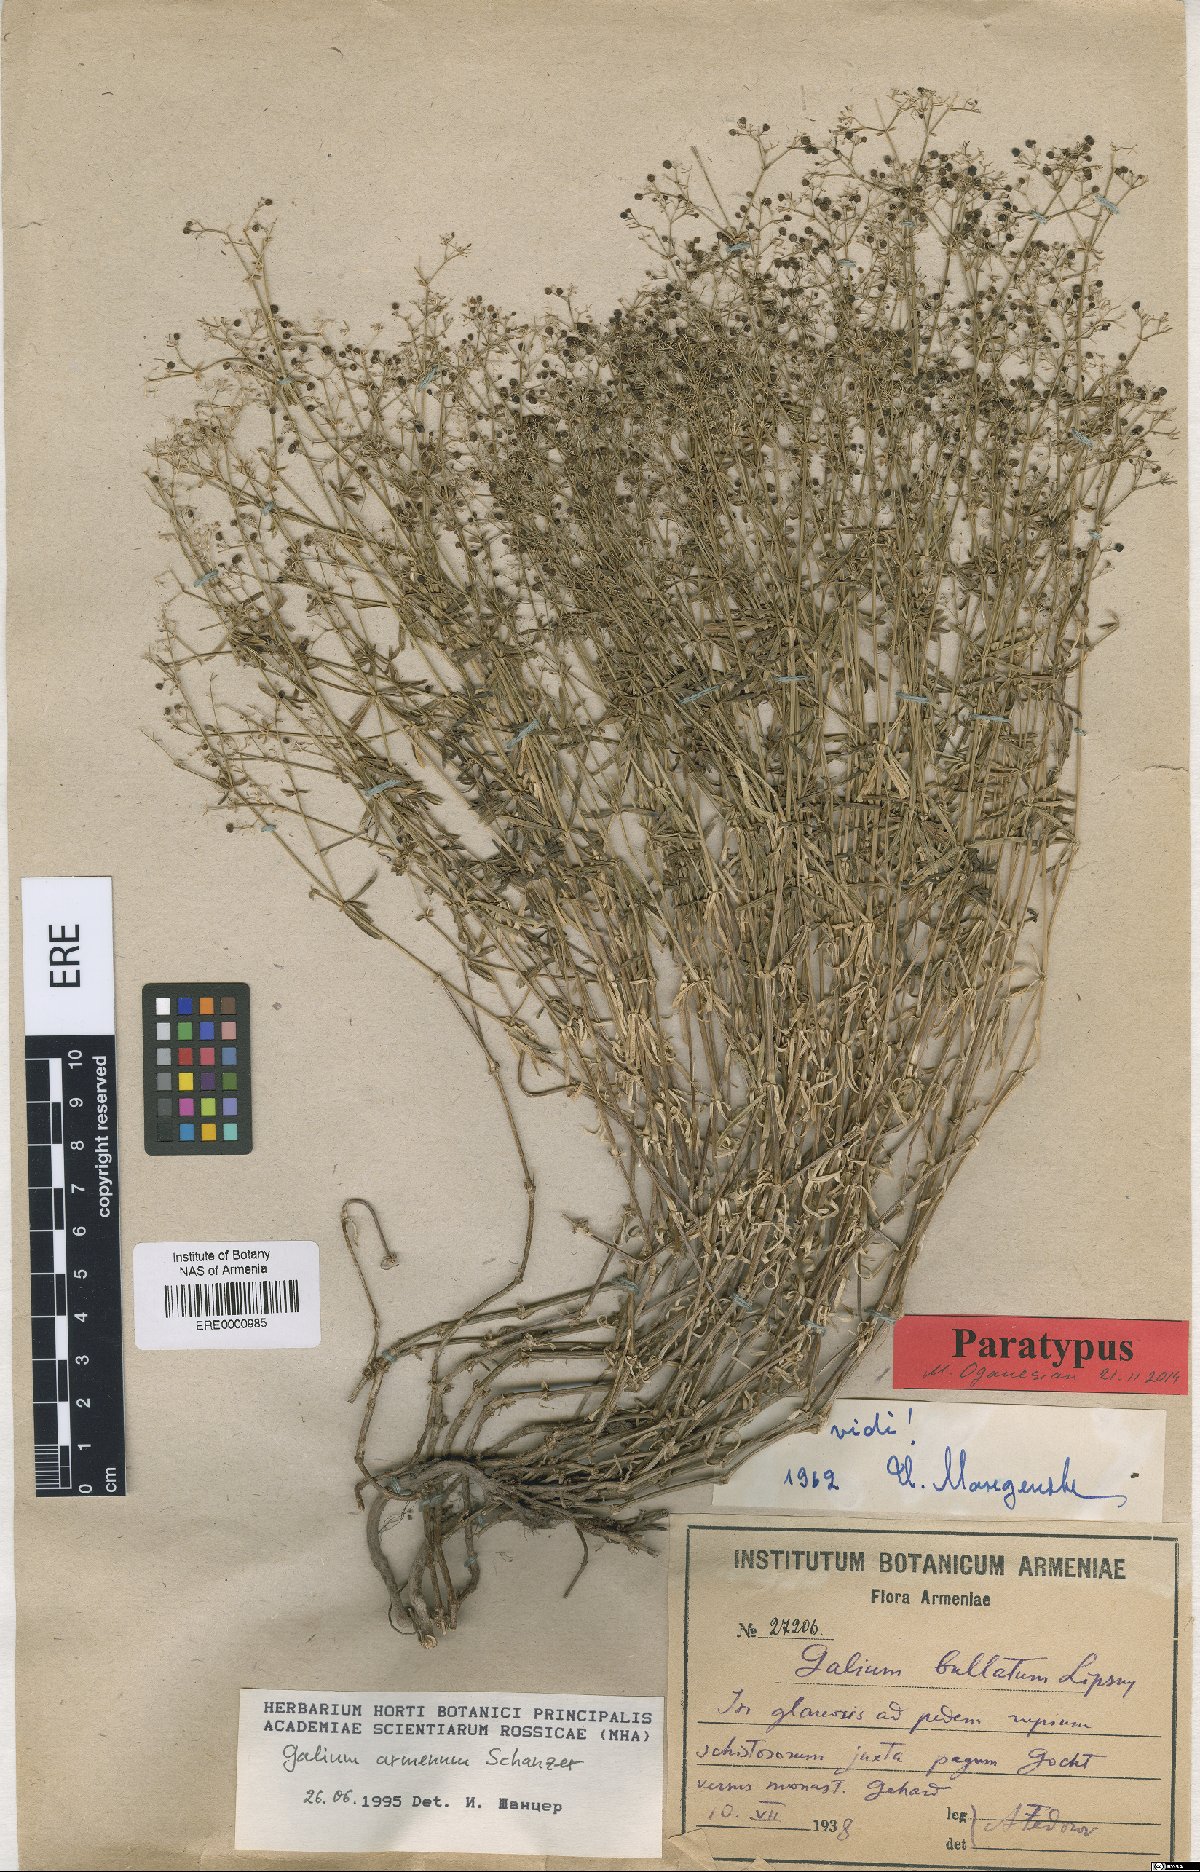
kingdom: Plantae
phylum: Tracheophyta
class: Magnoliopsida
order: Gentianales
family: Rubiaceae
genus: Galium
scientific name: Galium armenum
